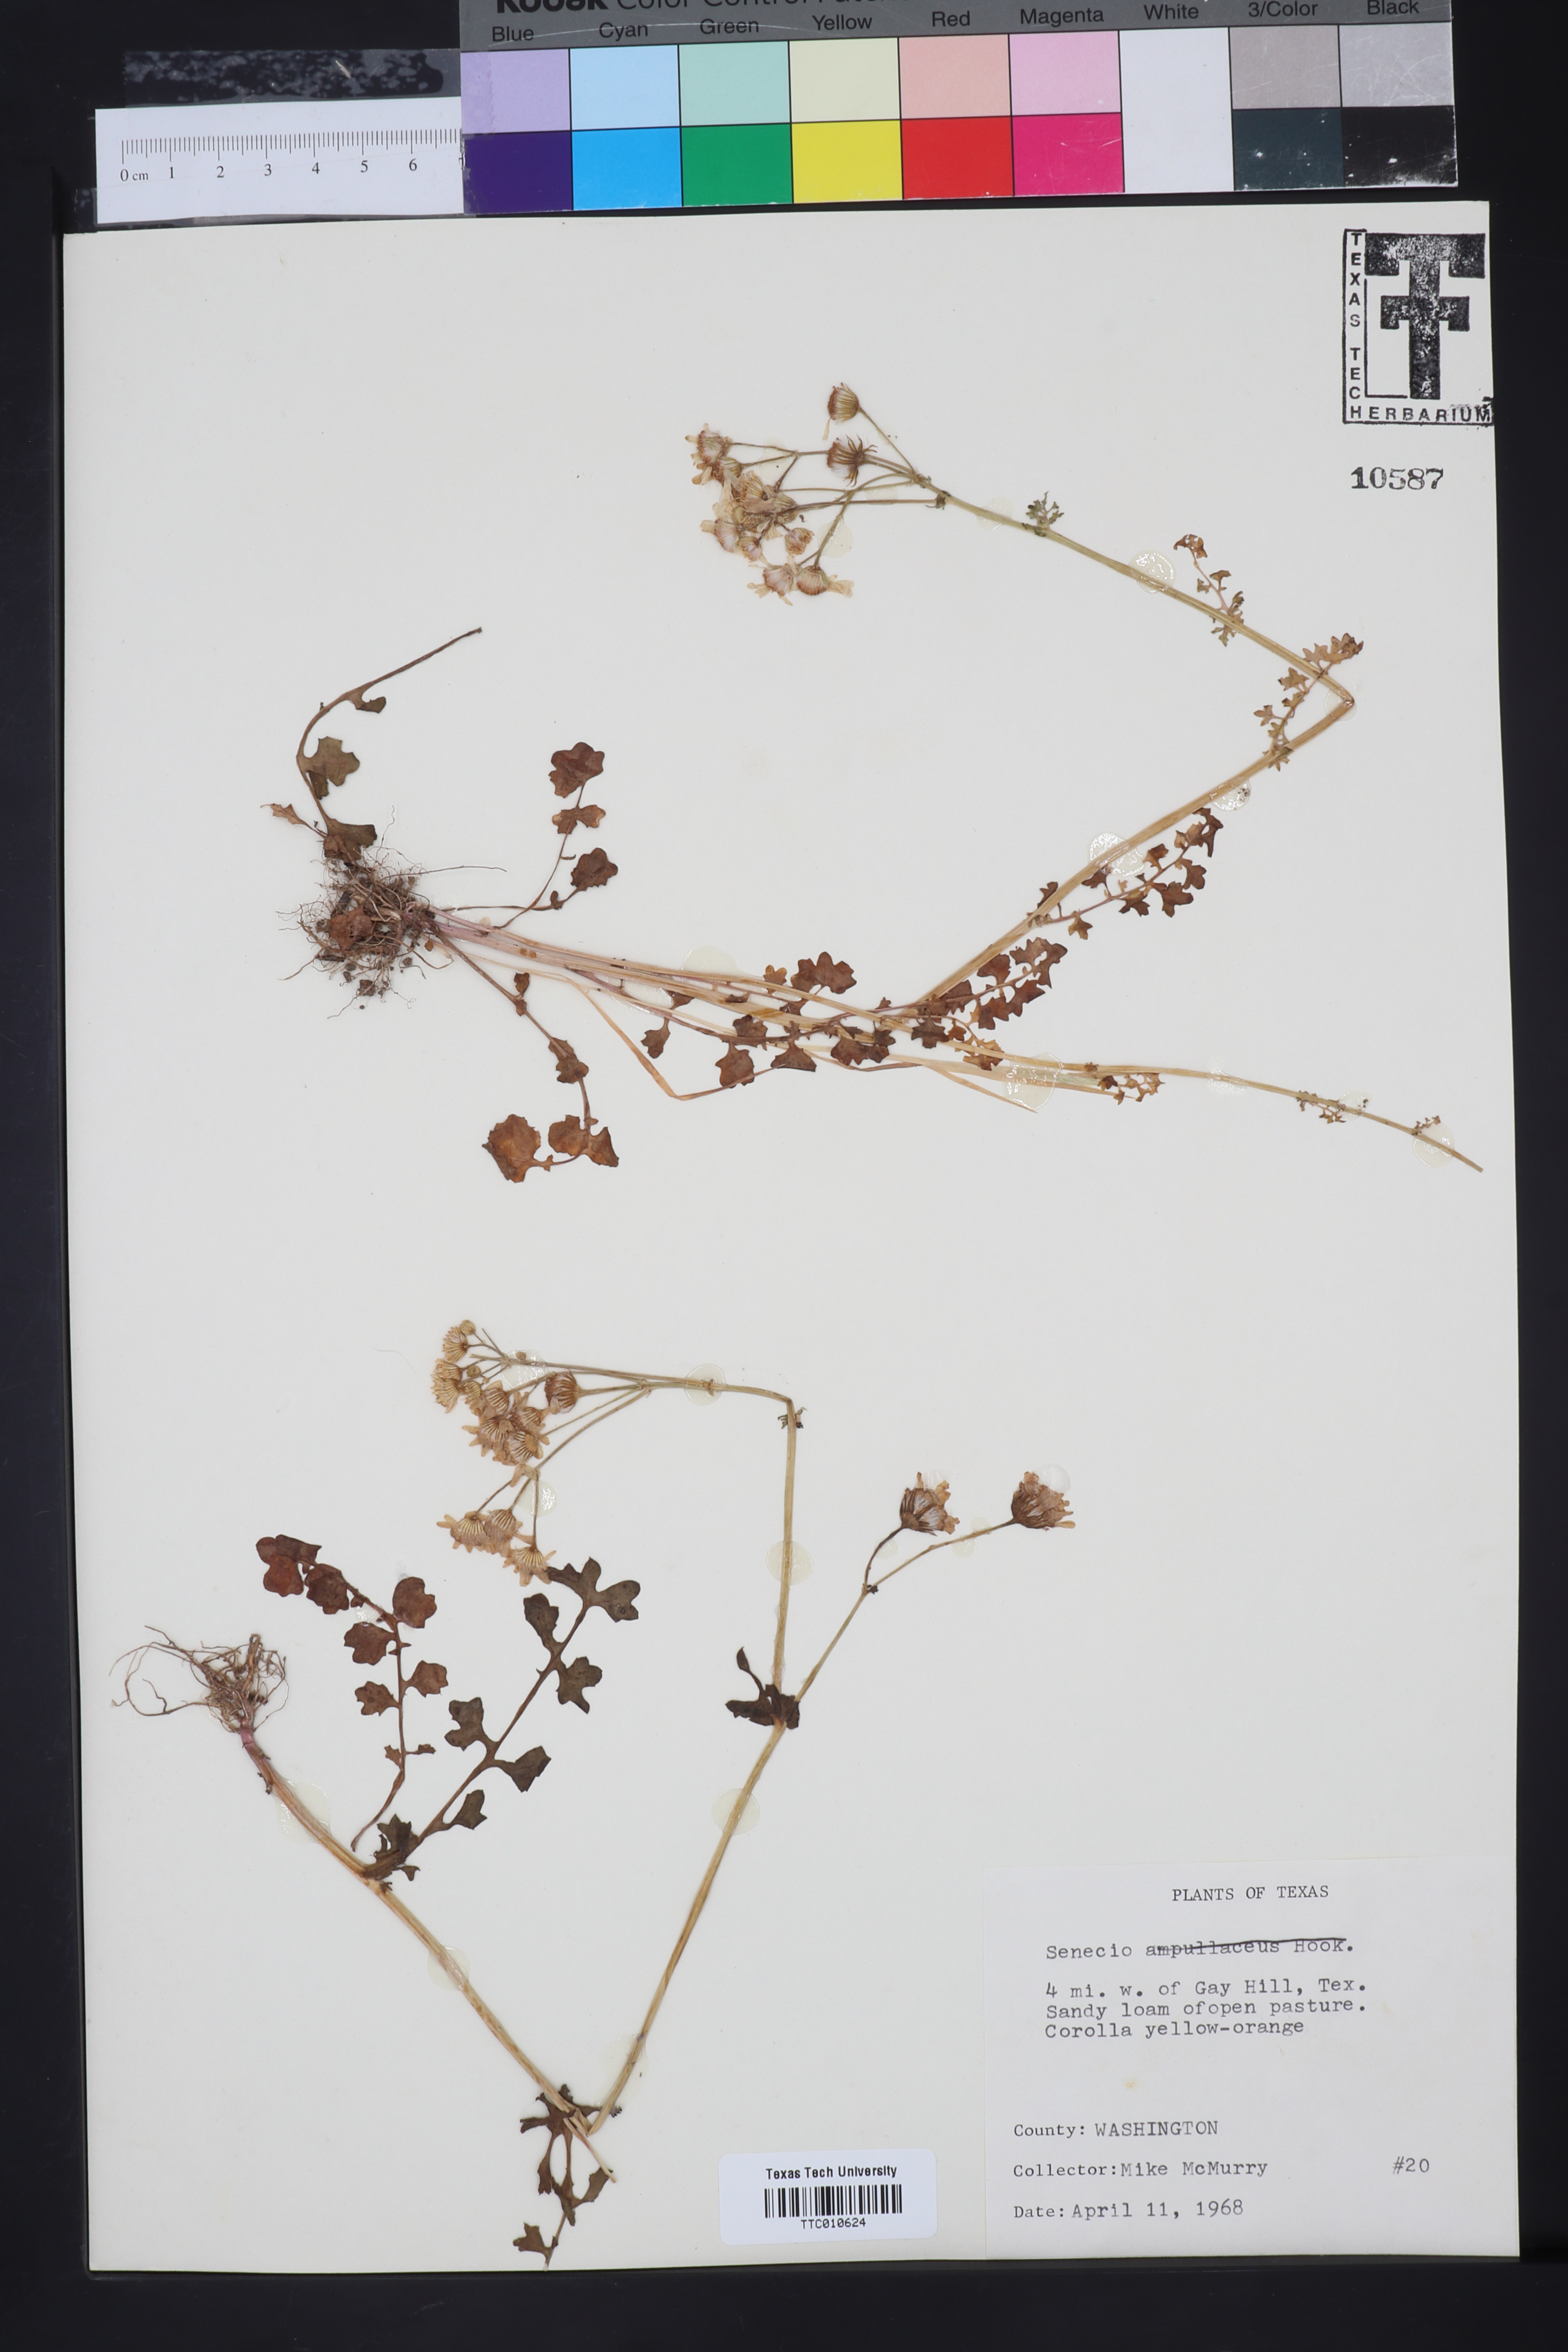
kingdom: Plantae
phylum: Tracheophyta
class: Magnoliopsida
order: Asterales
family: Asteraceae
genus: Senecio
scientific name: Senecio
